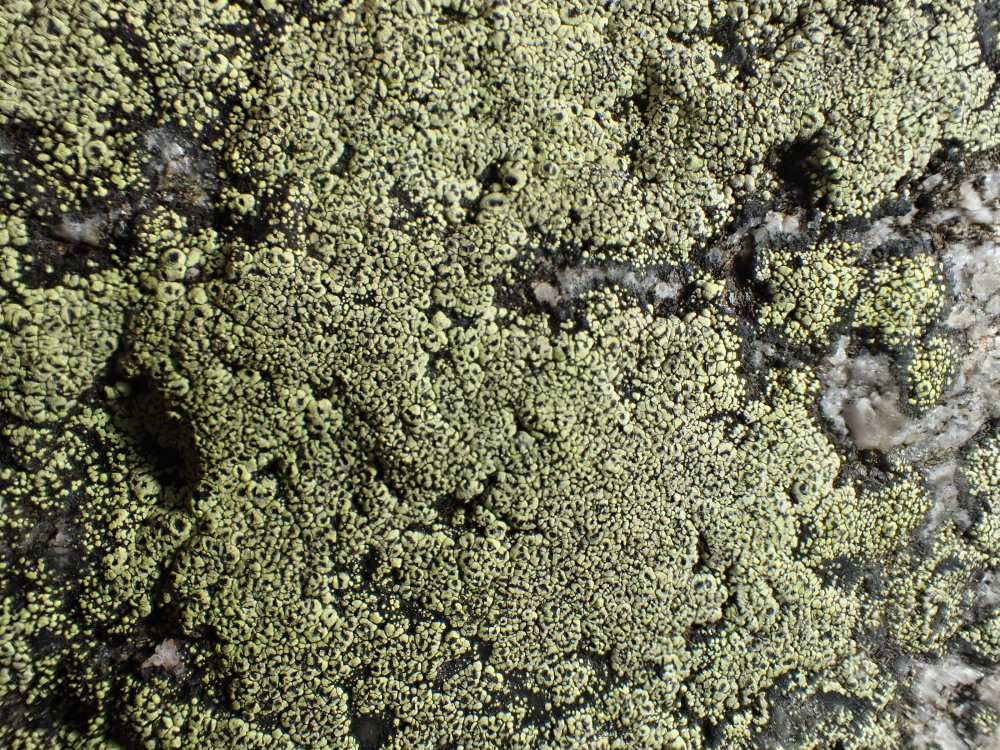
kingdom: Fungi
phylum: Ascomycota
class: Lecanoromycetes
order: Rhizocarpales
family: Rhizocarpaceae
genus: Rhizocarpon
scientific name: Rhizocarpon lecanorinum
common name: krave-landkortlav
